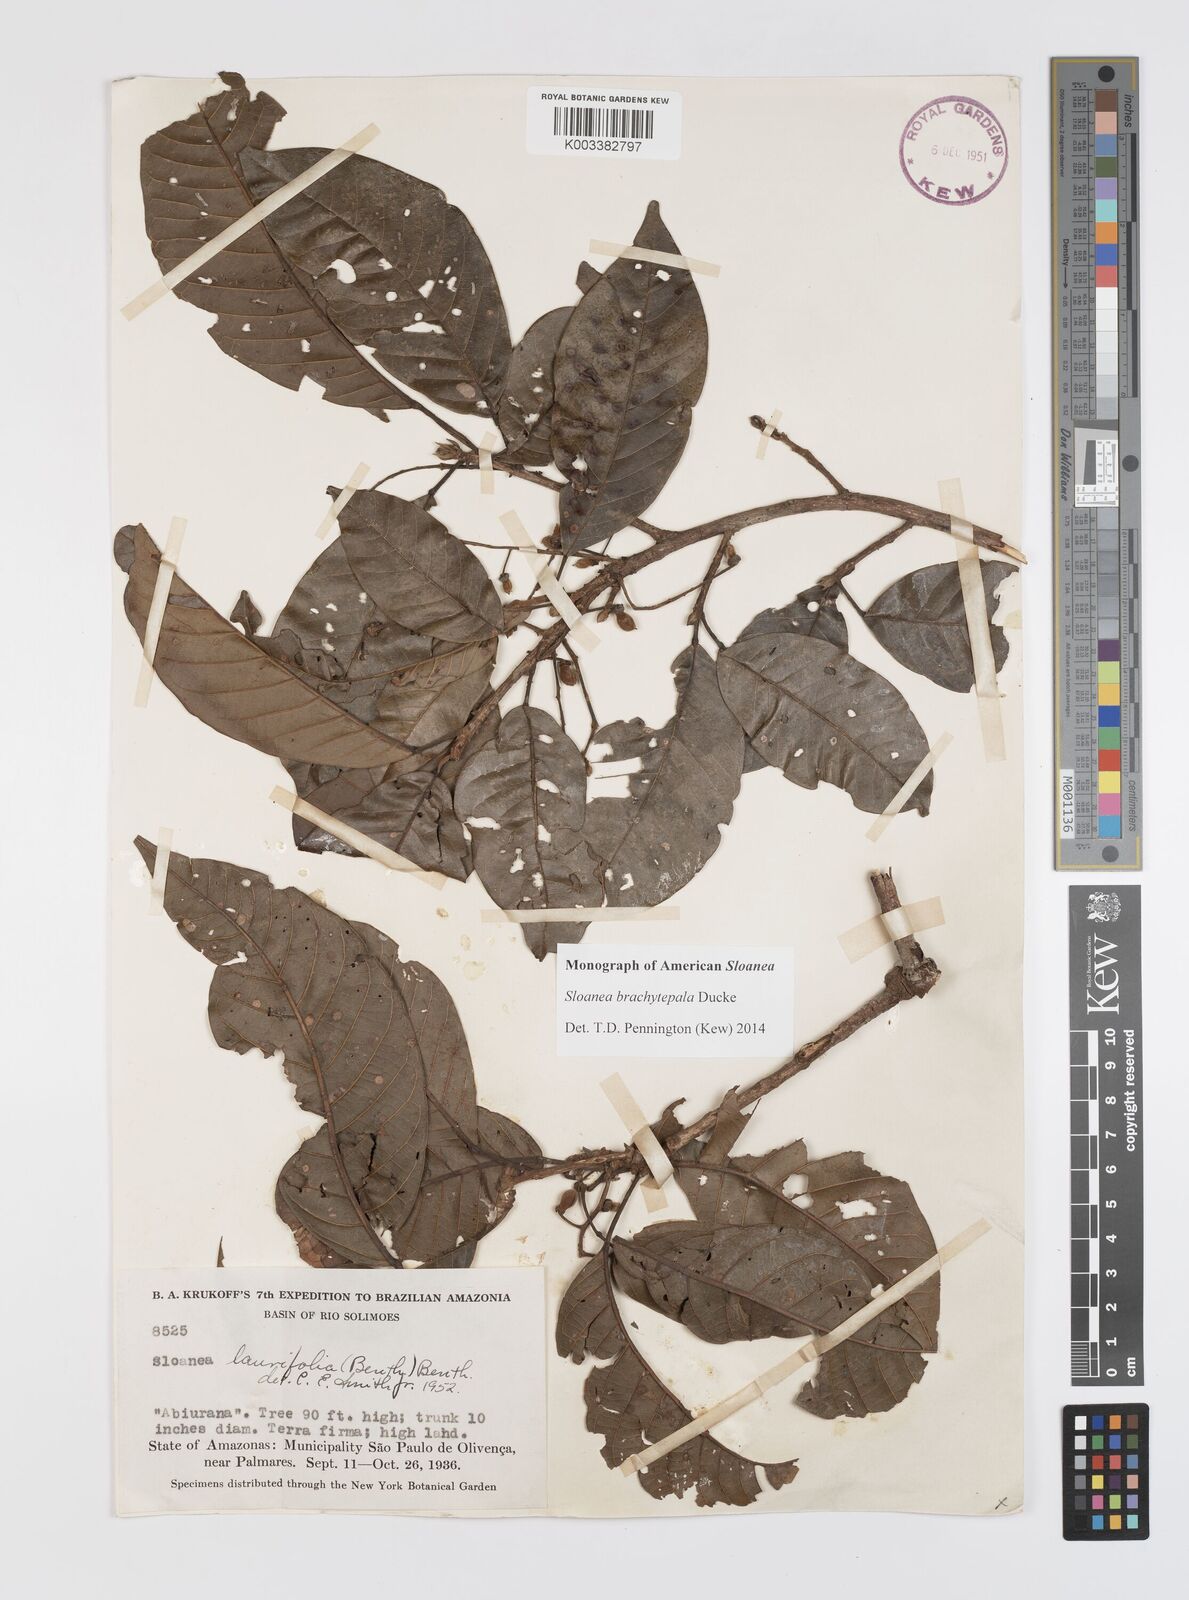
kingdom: Plantae
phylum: Tracheophyta
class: Magnoliopsida
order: Oxalidales
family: Elaeocarpaceae
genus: Sloanea
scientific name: Sloanea brachytepala
